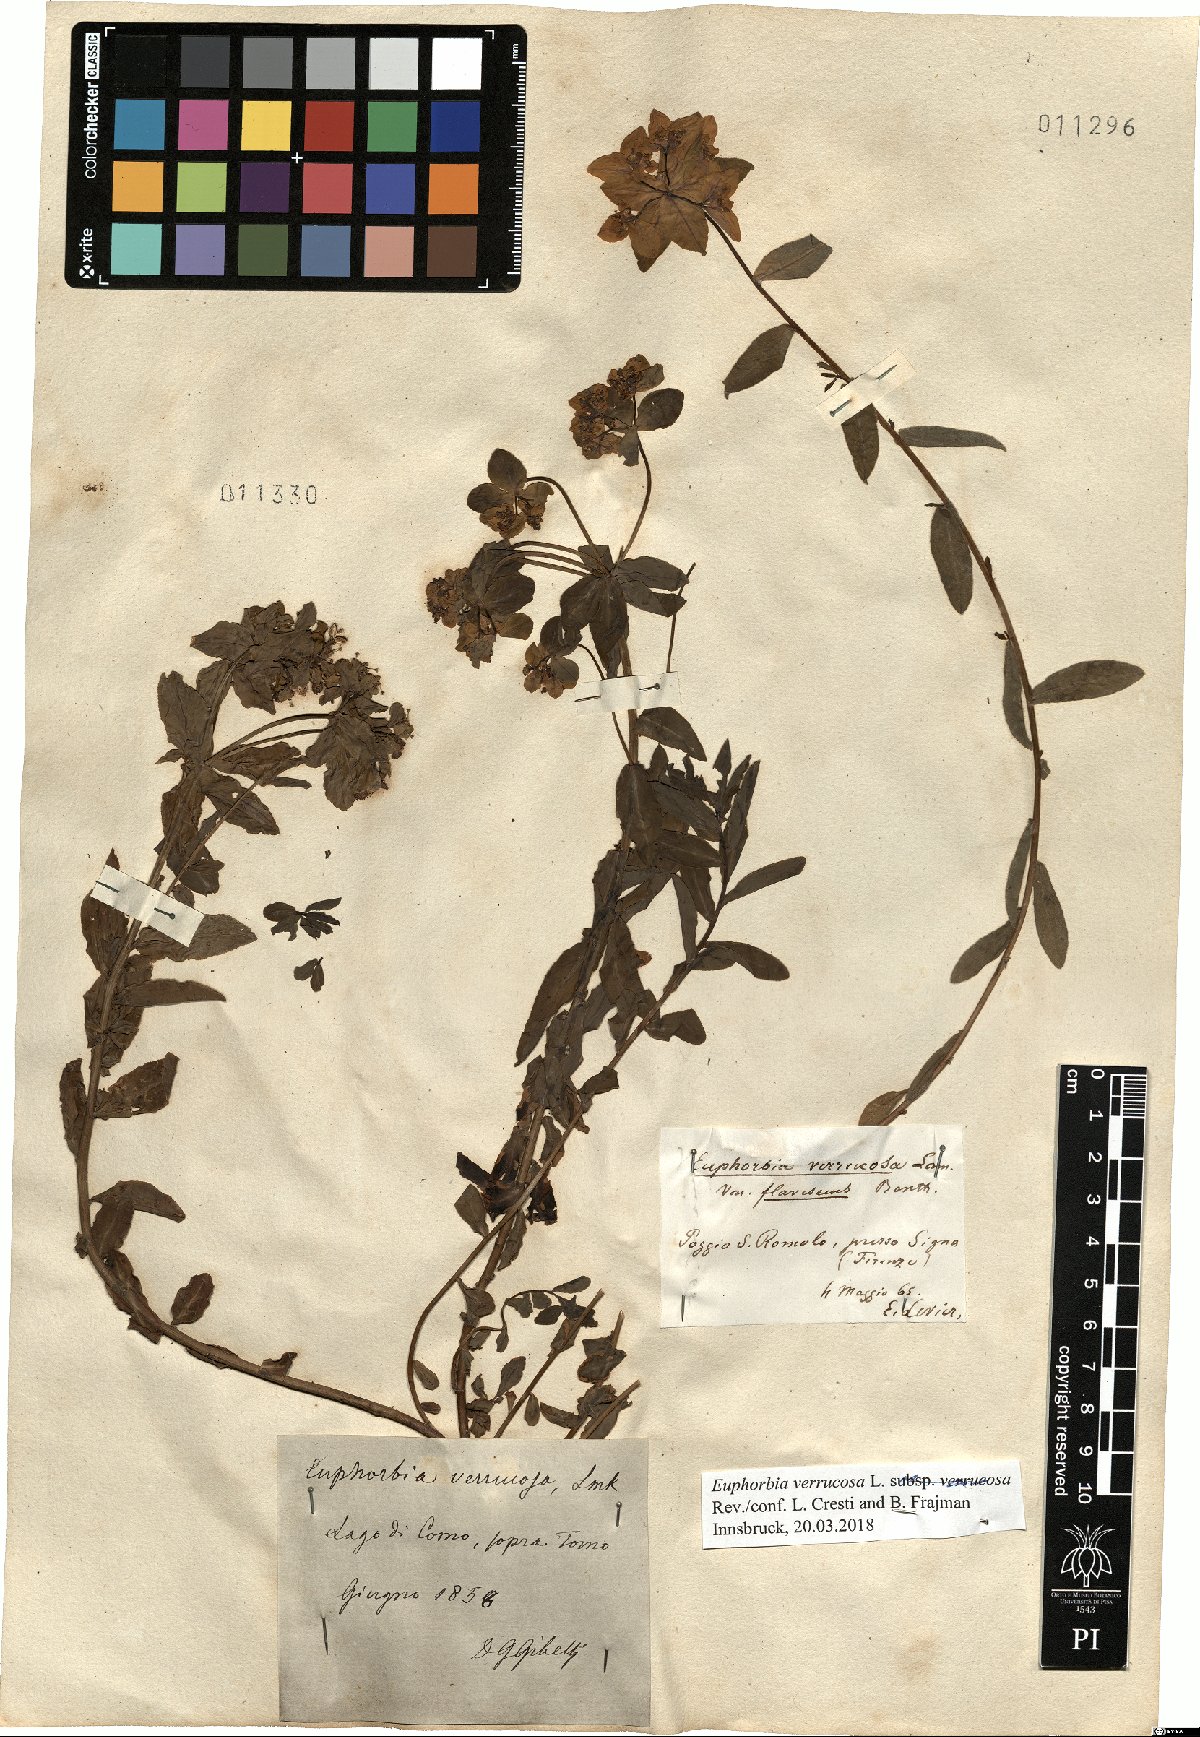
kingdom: Plantae
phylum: Tracheophyta
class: Magnoliopsida
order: Malpighiales
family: Euphorbiaceae
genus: Euphorbia
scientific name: Euphorbia verrucosa
